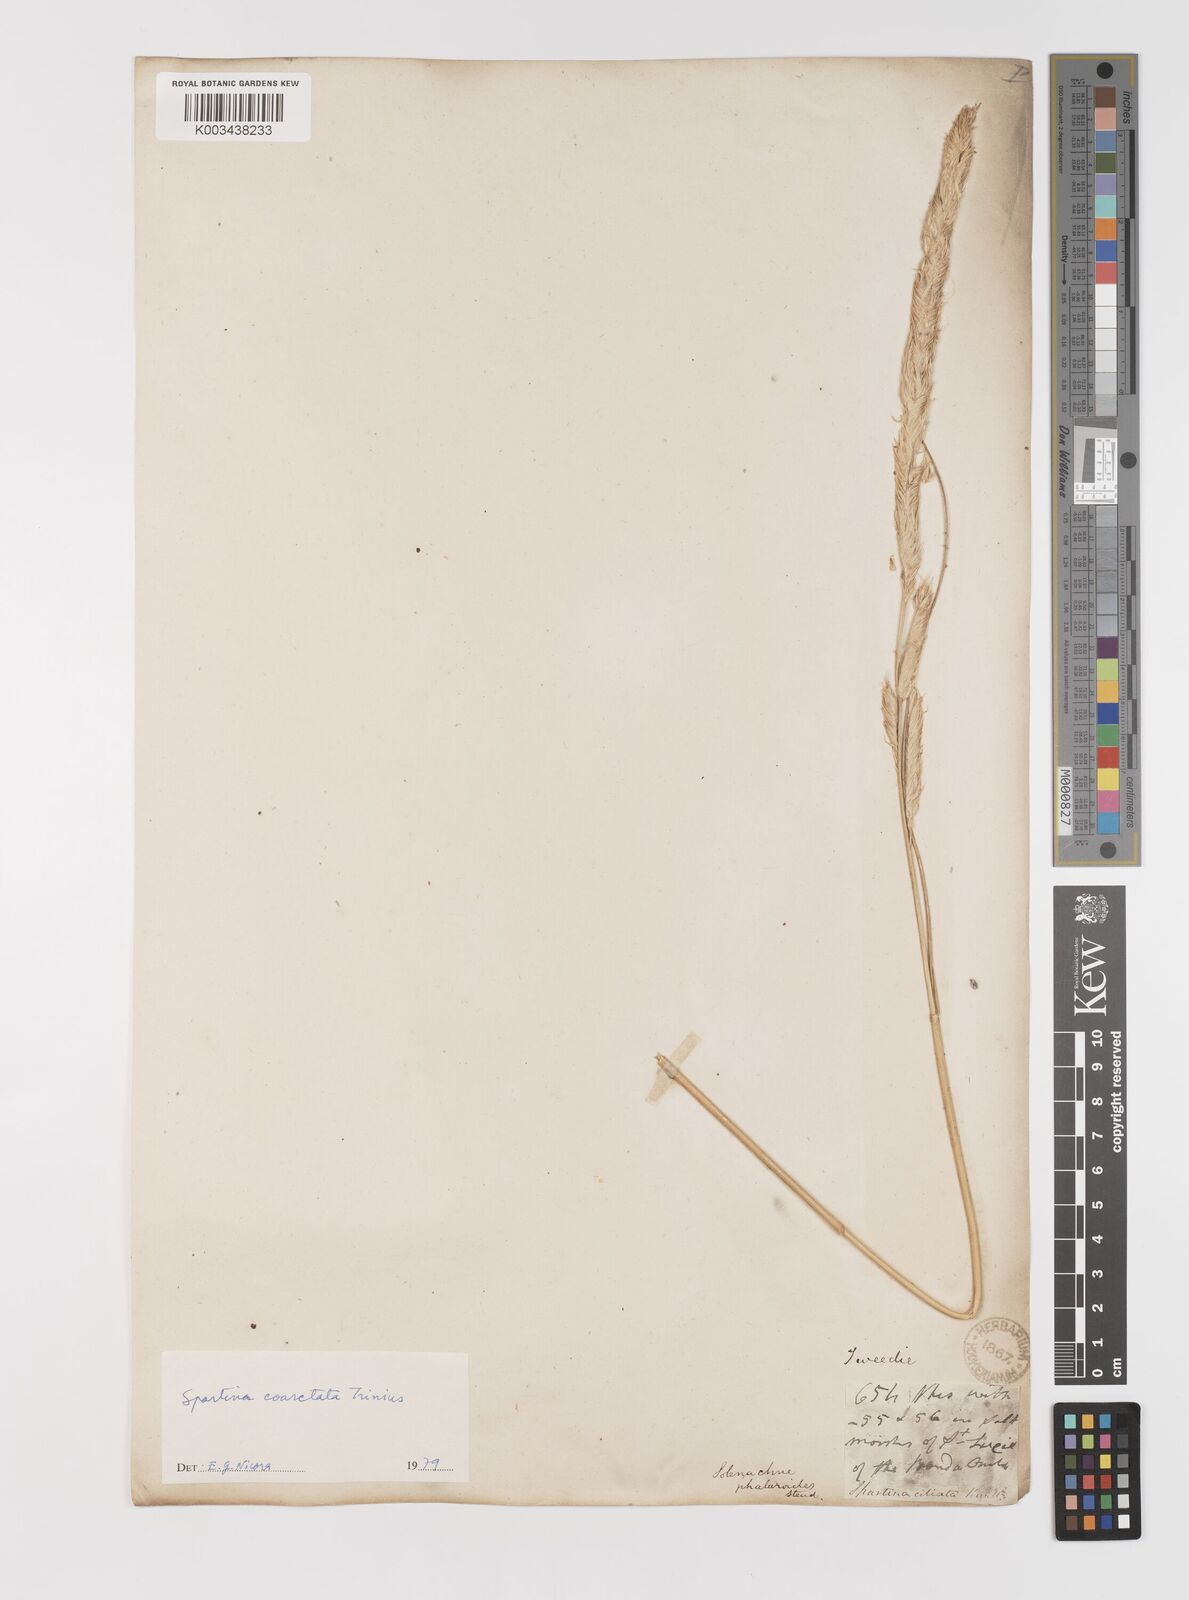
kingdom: Plantae
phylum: Tracheophyta
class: Liliopsida
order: Poales
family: Poaceae
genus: Sporobolus
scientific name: Sporobolus coarctatus
